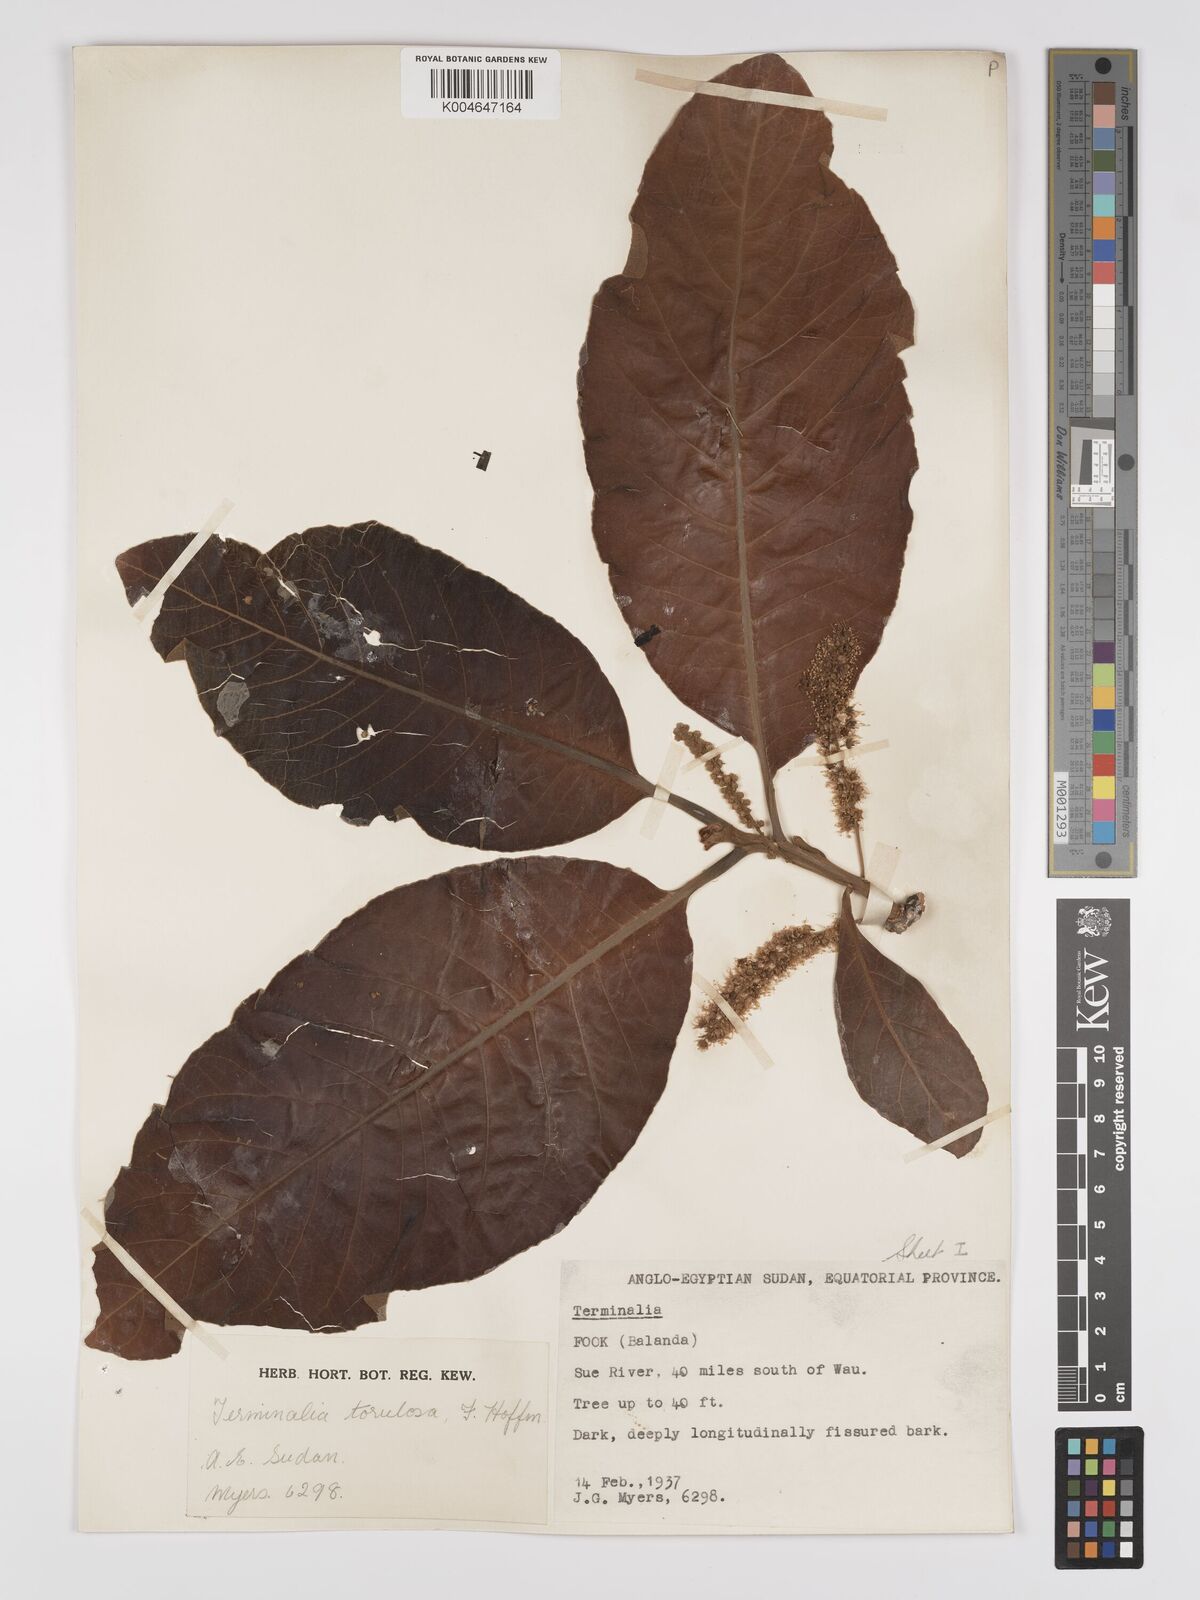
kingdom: Plantae
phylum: Tracheophyta
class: Magnoliopsida
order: Myrtales
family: Combretaceae
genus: Terminalia
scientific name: Terminalia mollis
